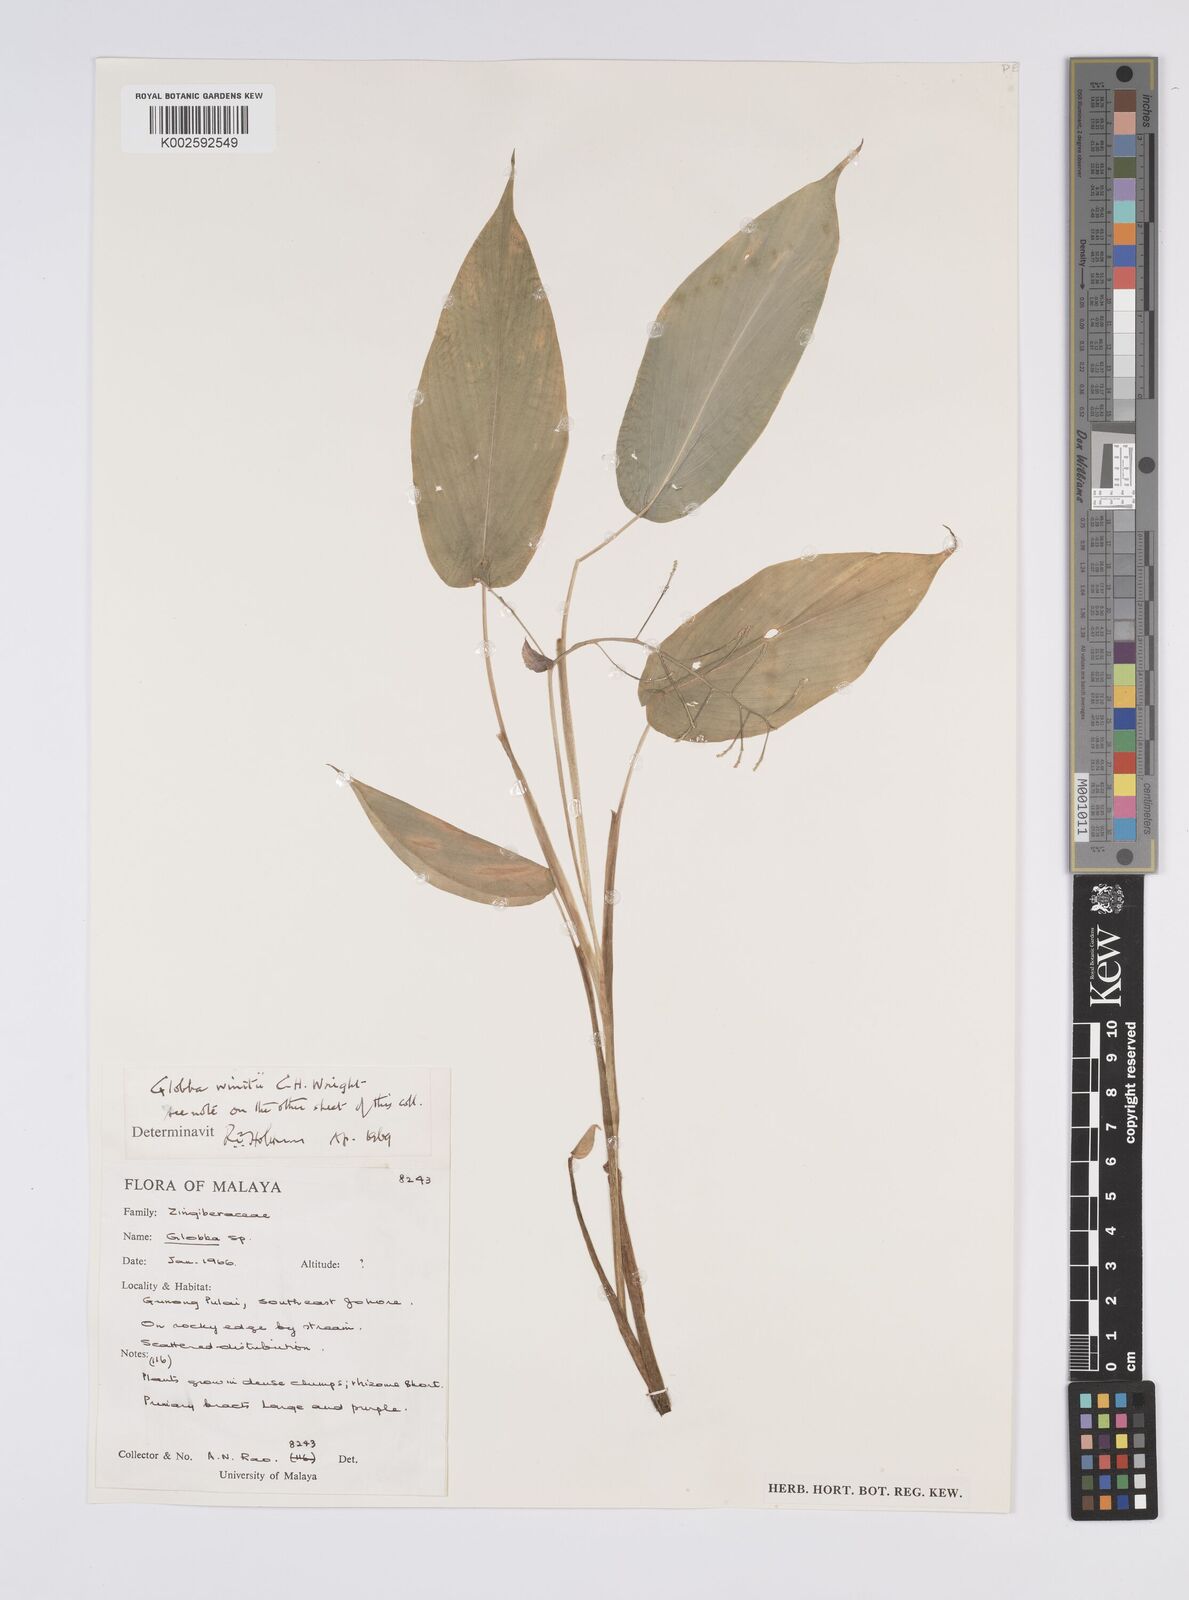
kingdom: Plantae
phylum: Tracheophyta
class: Liliopsida
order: Zingiberales
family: Zingiberaceae
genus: Globba
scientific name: Globba winitii
